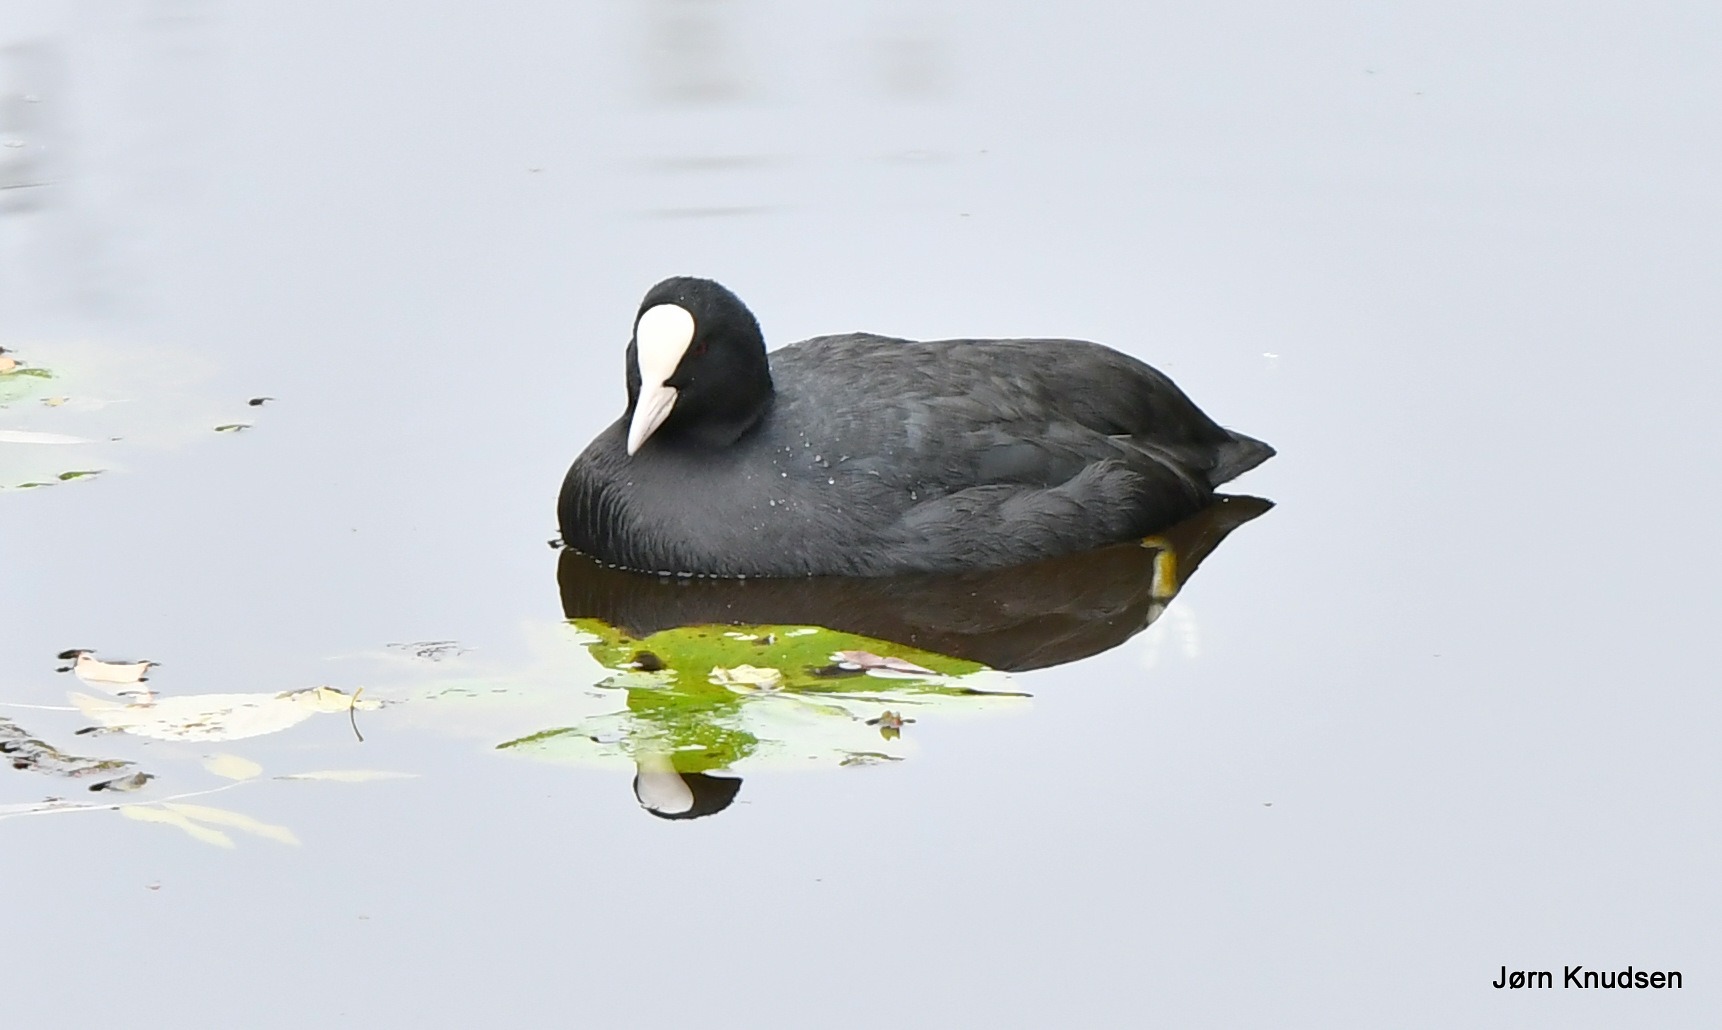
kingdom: Animalia
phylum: Chordata
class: Aves
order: Gruiformes
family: Rallidae
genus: Fulica
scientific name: Fulica atra
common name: Blishøne
